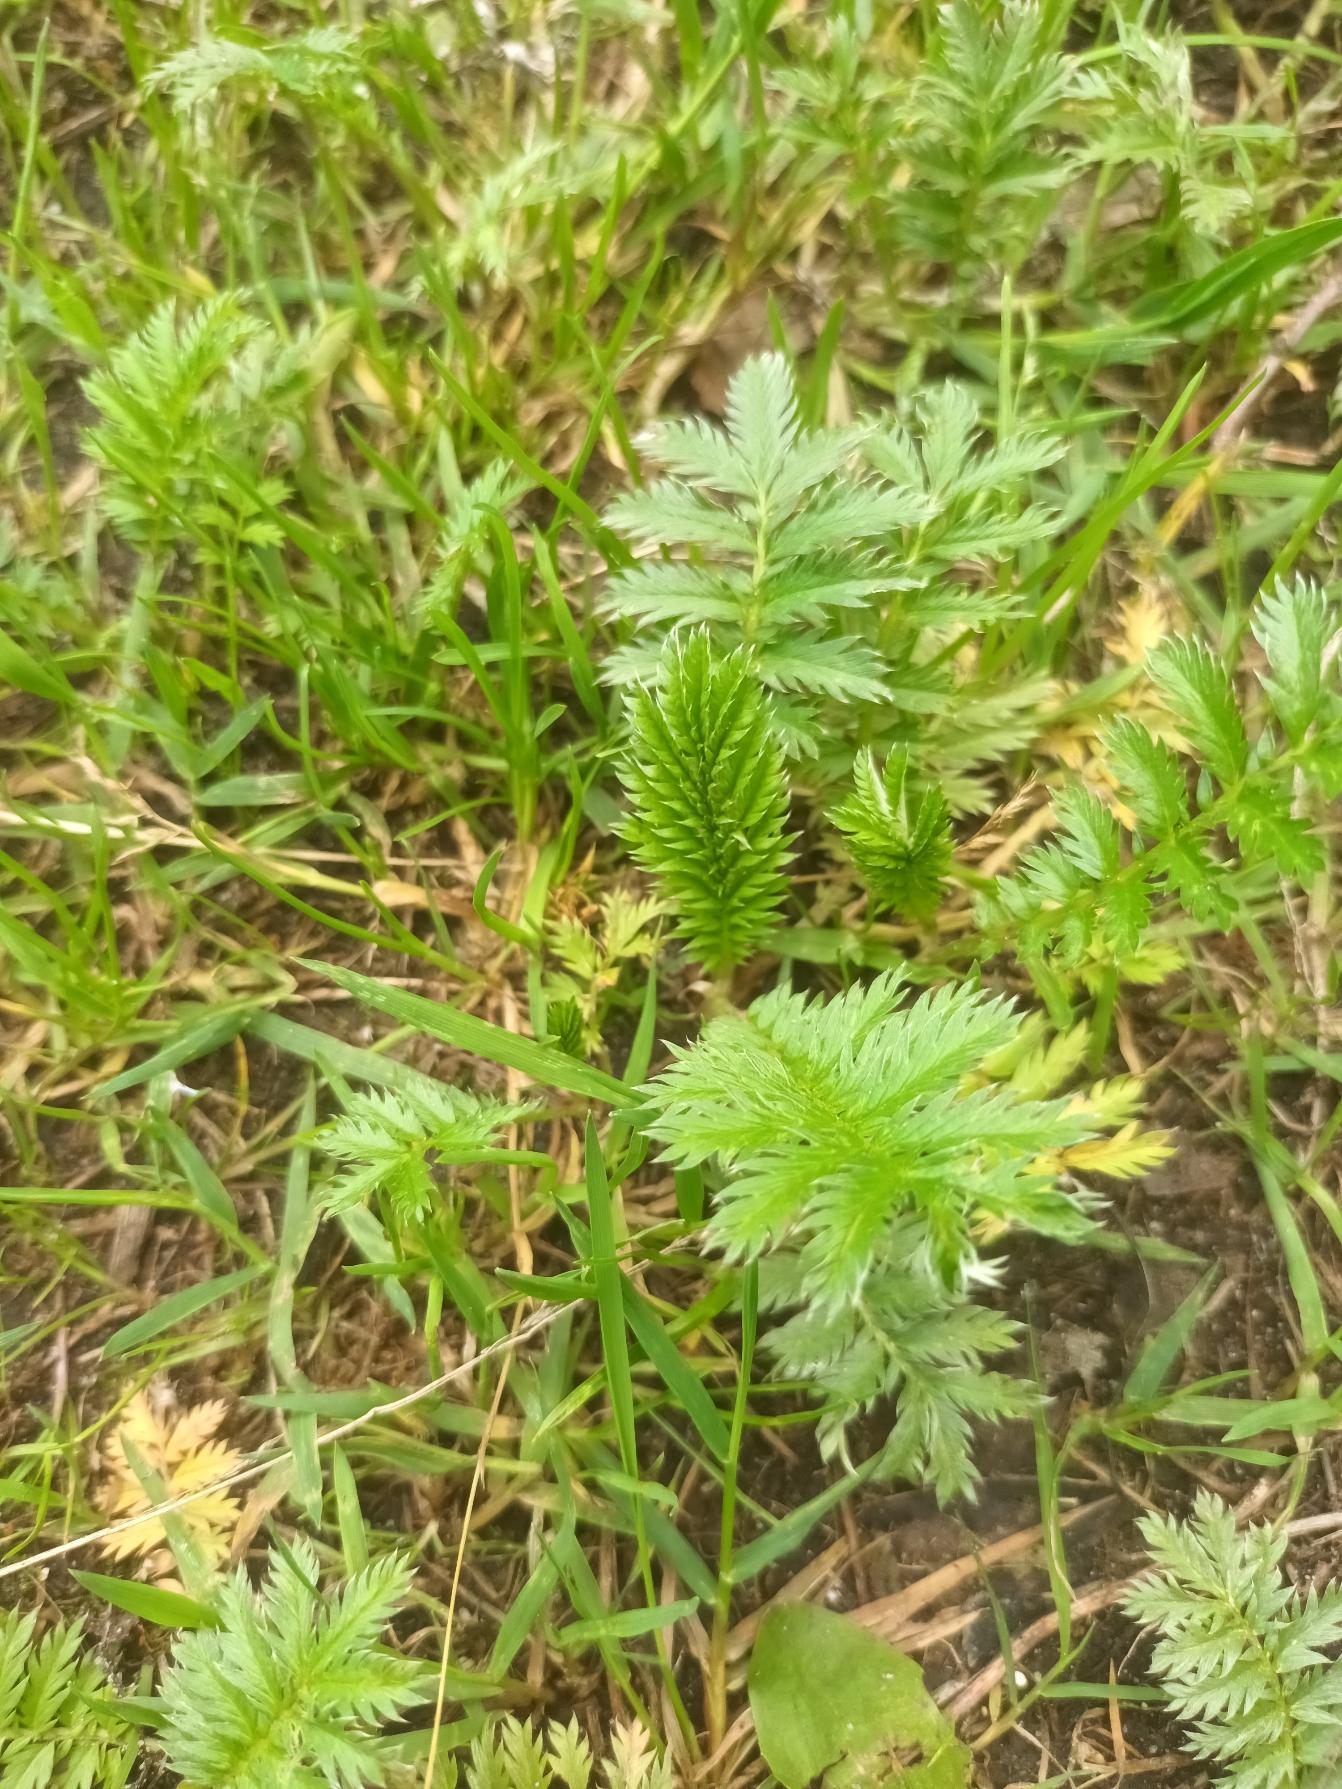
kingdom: Plantae
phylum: Tracheophyta
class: Magnoliopsida
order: Rosales
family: Rosaceae
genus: Argentina
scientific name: Argentina anserina
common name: Gåsepotentil
